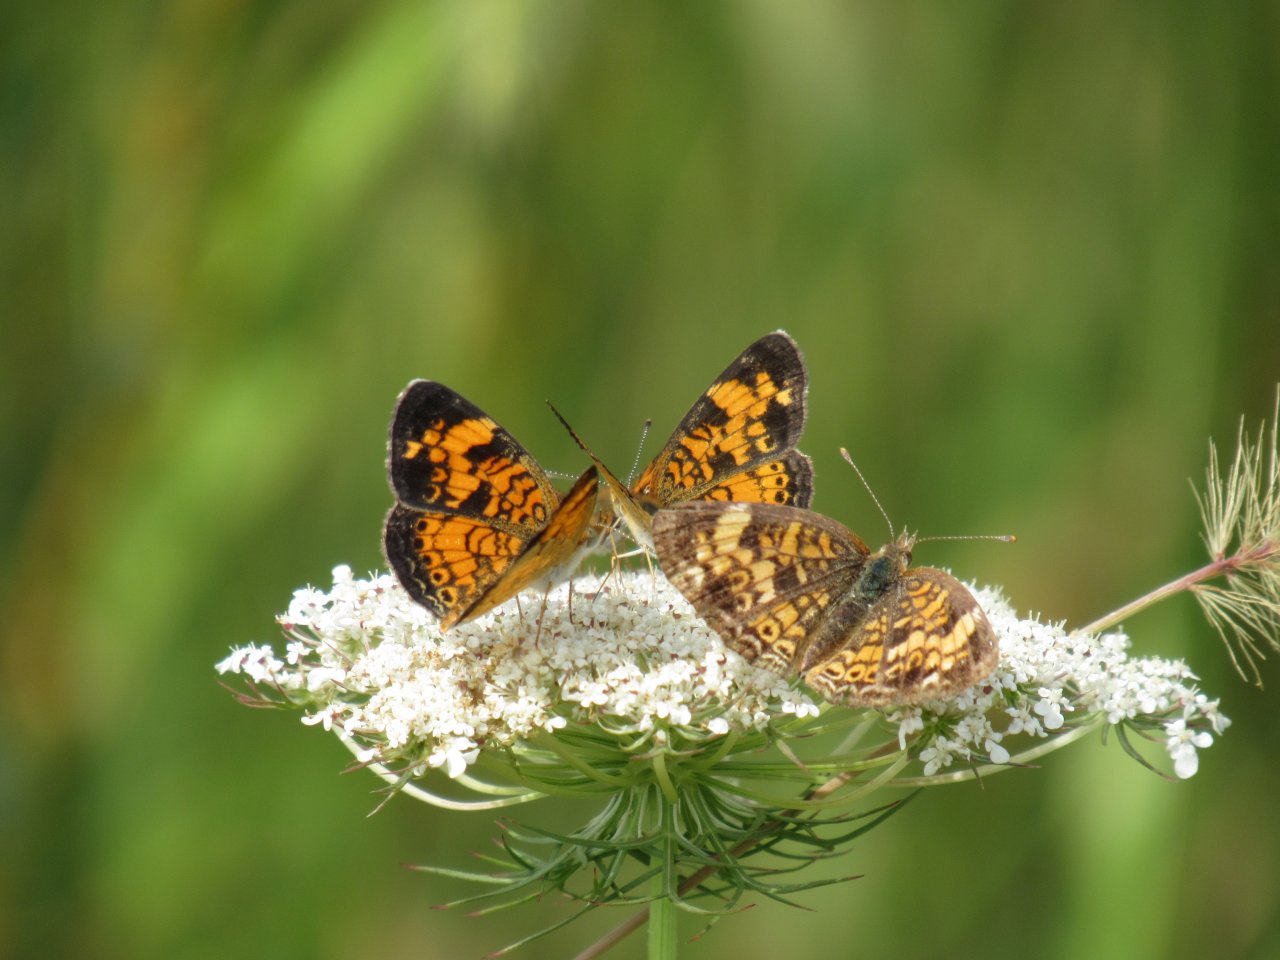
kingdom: Animalia
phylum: Arthropoda
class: Insecta
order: Lepidoptera
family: Nymphalidae
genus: Phyciodes
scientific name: Phyciodes tharos
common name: Pearl Crescent
